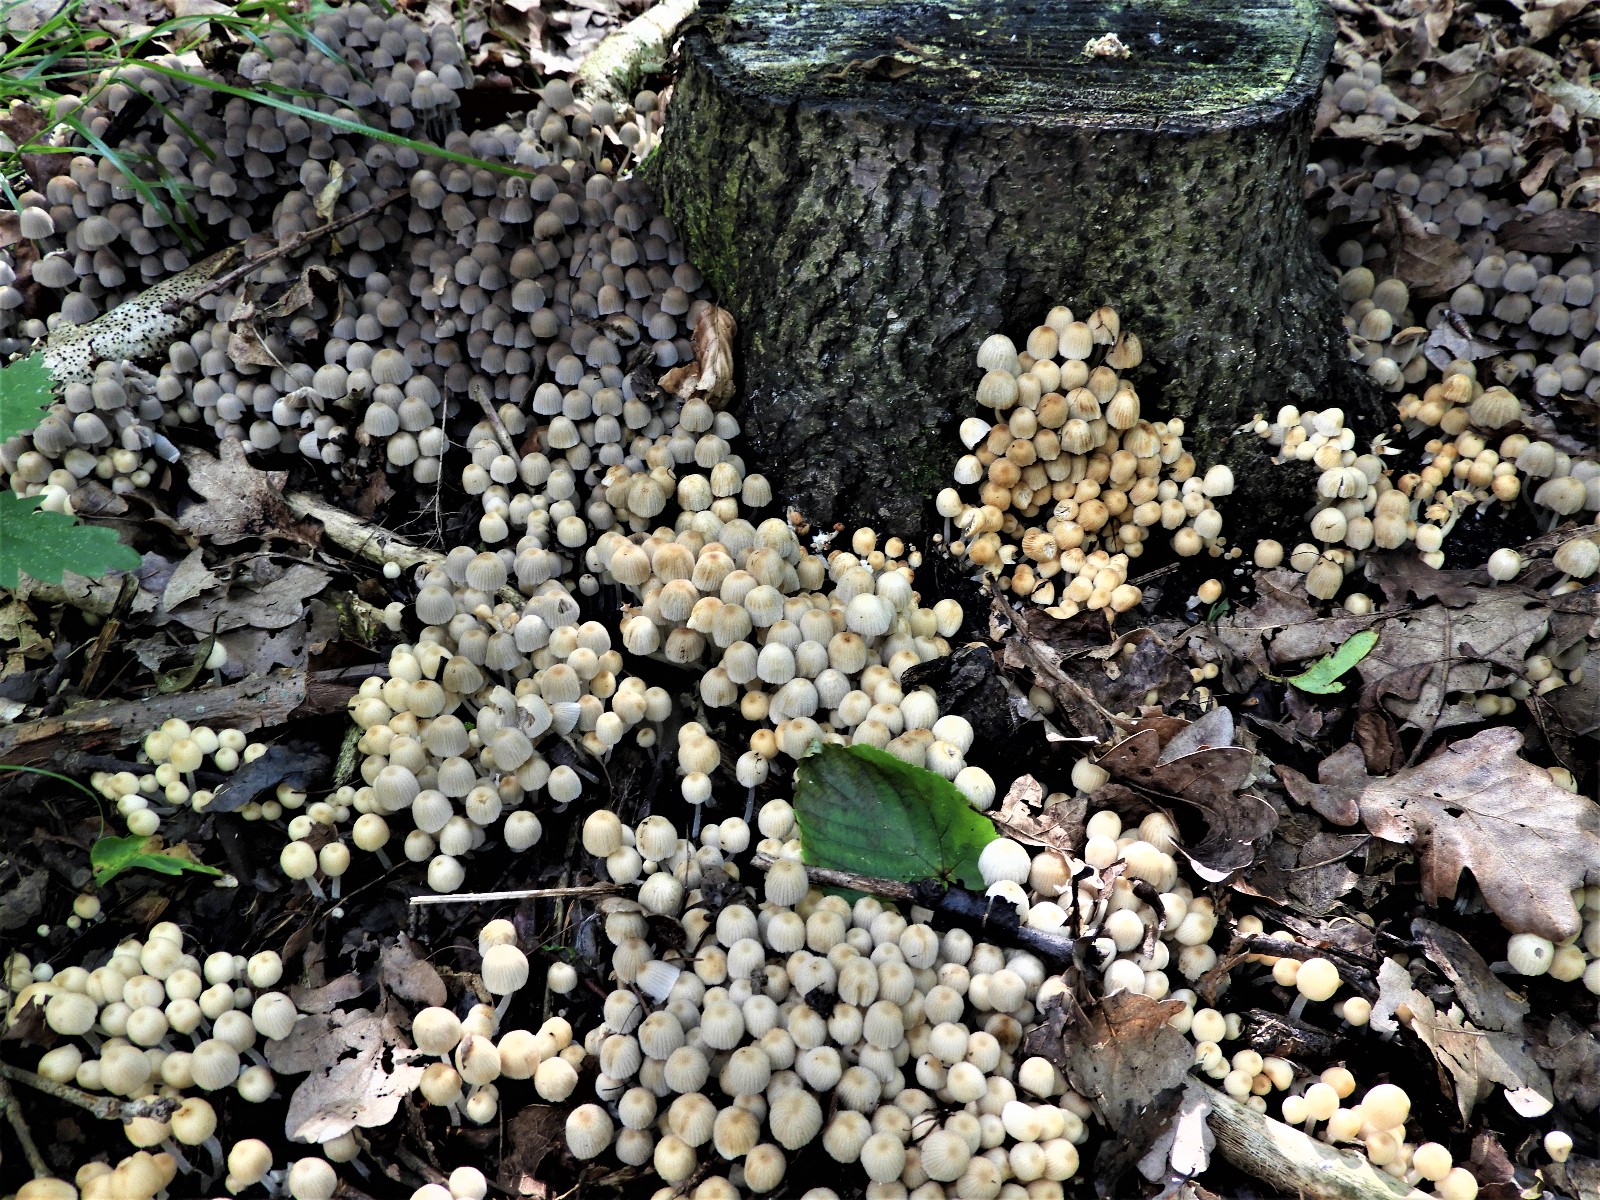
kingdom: Fungi
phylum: Basidiomycota
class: Agaricomycetes
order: Agaricales
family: Psathyrellaceae
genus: Coprinellus
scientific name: Coprinellus disseminatus
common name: bredsået blækhat
